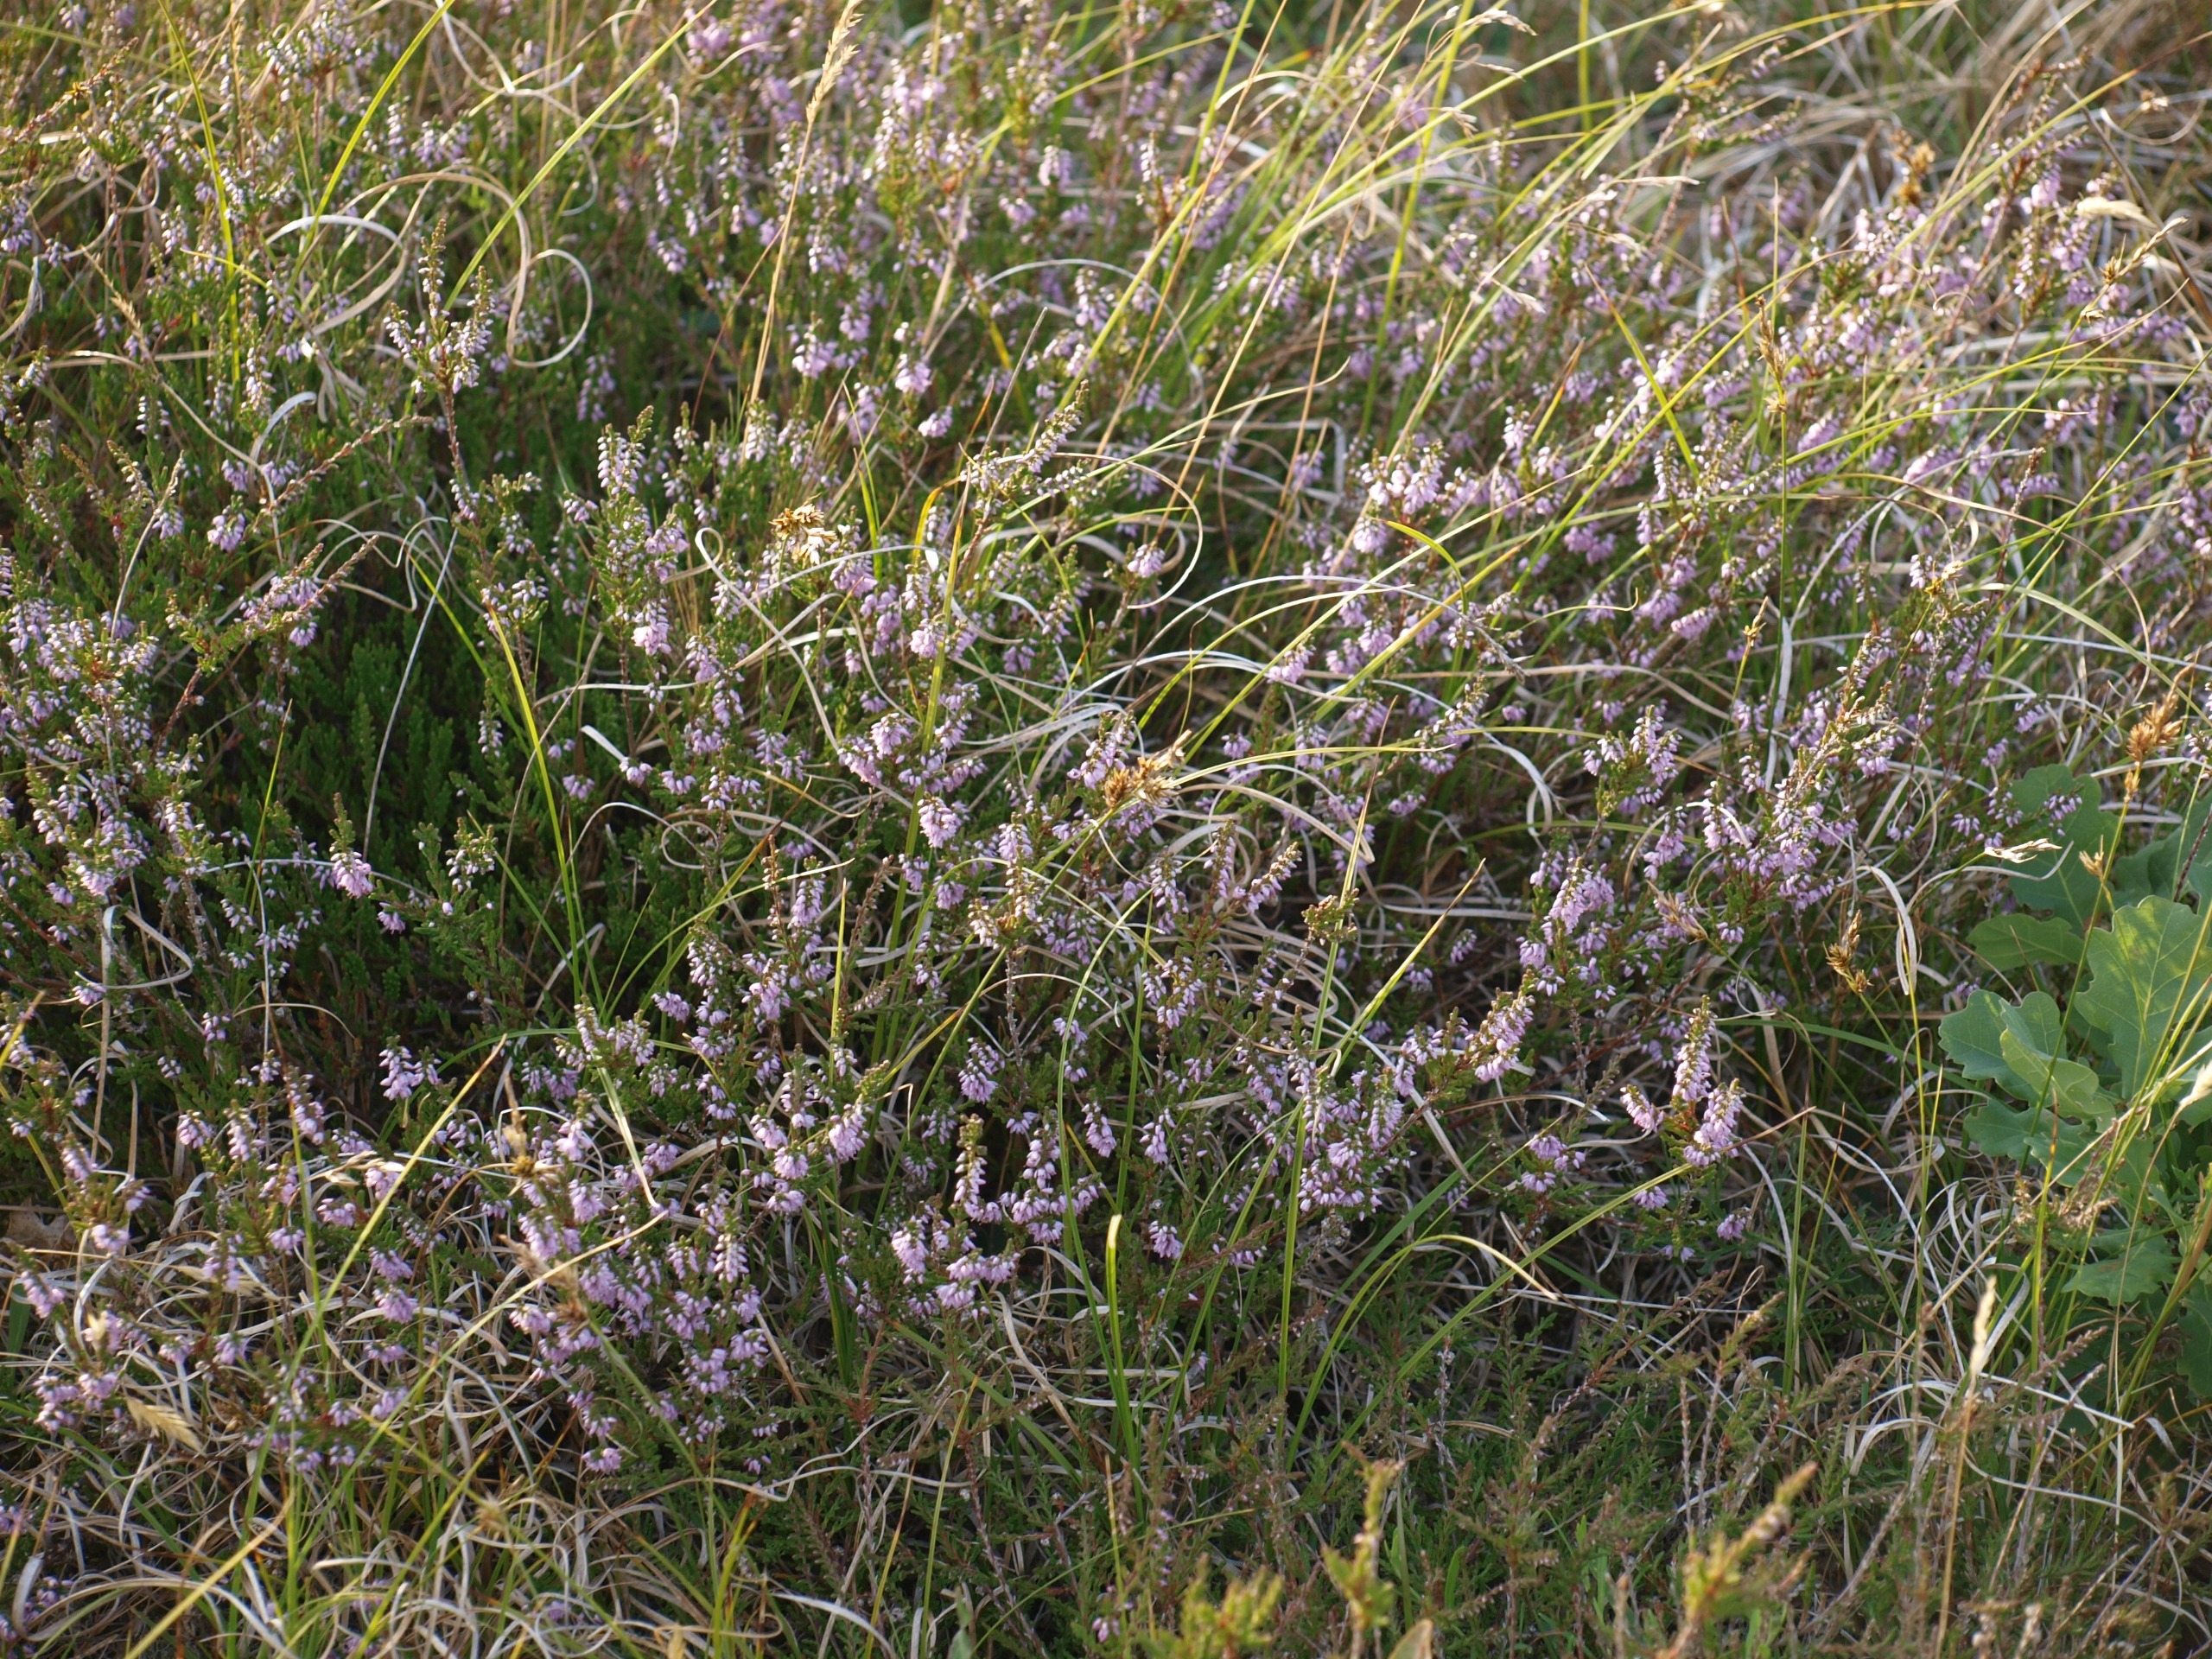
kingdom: Plantae
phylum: Tracheophyta
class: Magnoliopsida
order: Ericales
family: Ericaceae
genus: Calluna
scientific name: Calluna vulgaris
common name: Hedelyng
